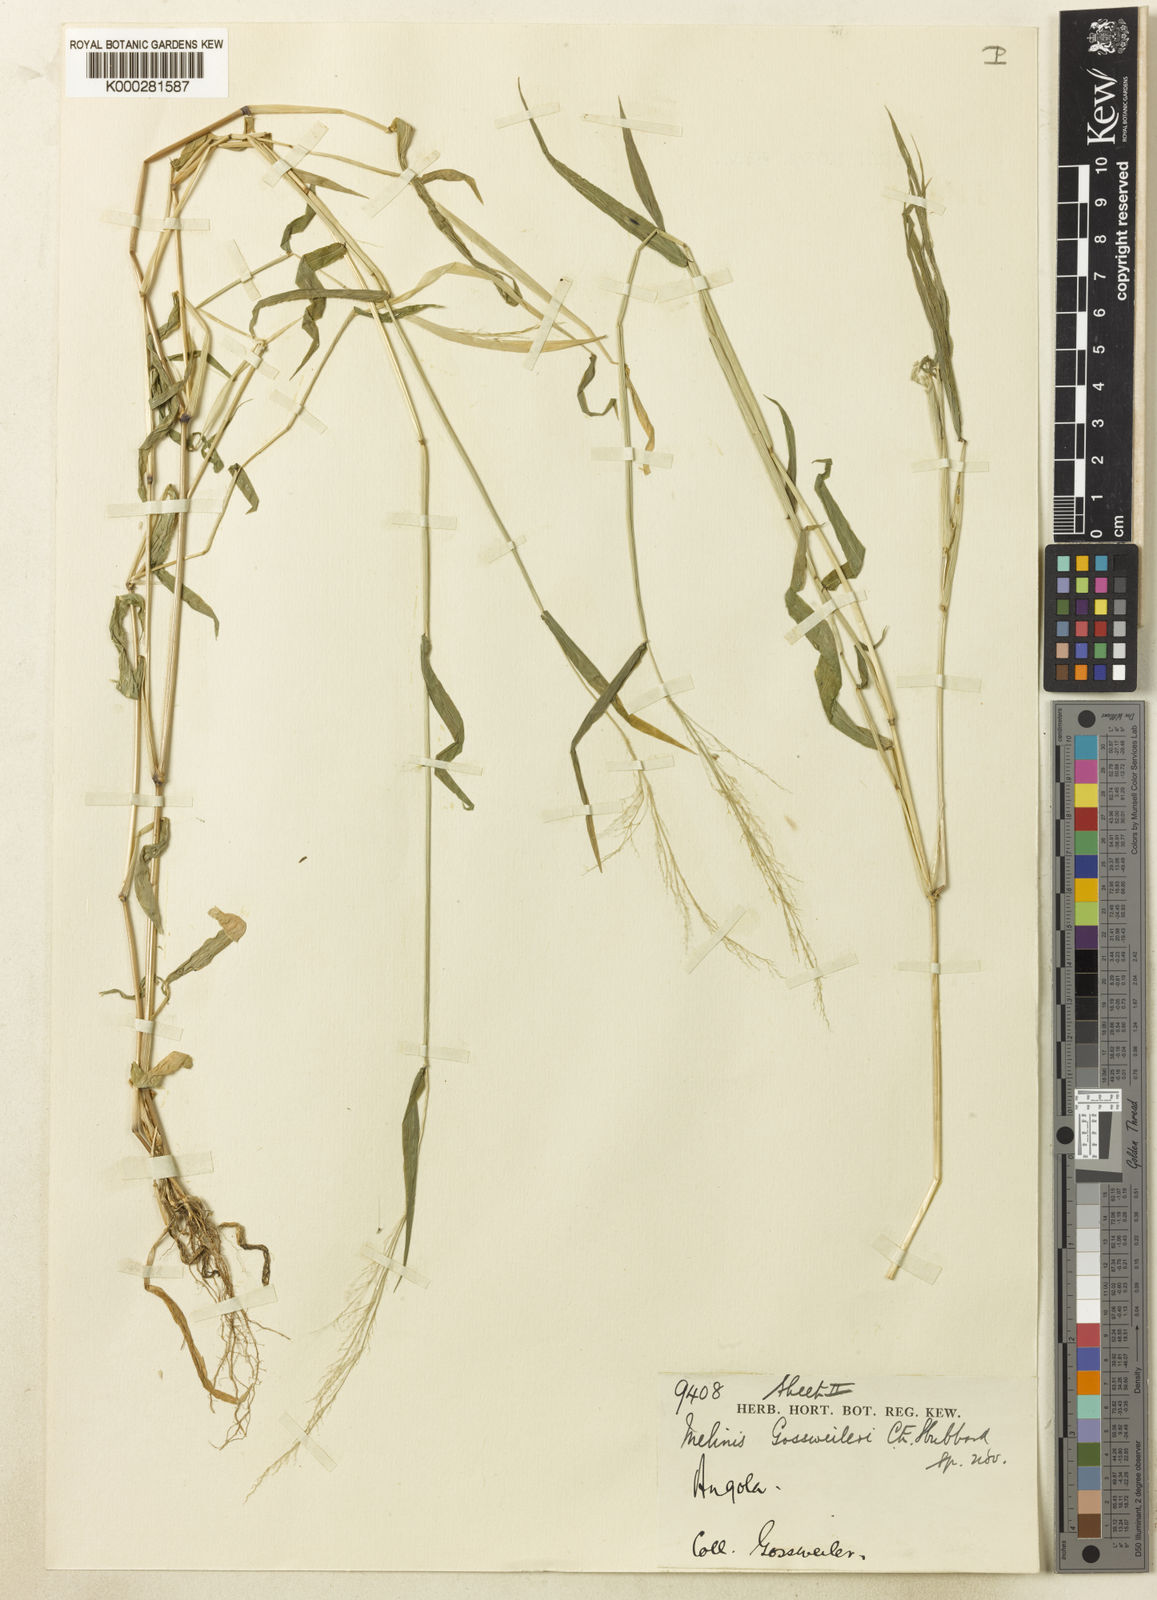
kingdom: Plantae
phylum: Tracheophyta
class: Liliopsida
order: Poales
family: Poaceae
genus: Melinis
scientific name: Melinis gossweileri
